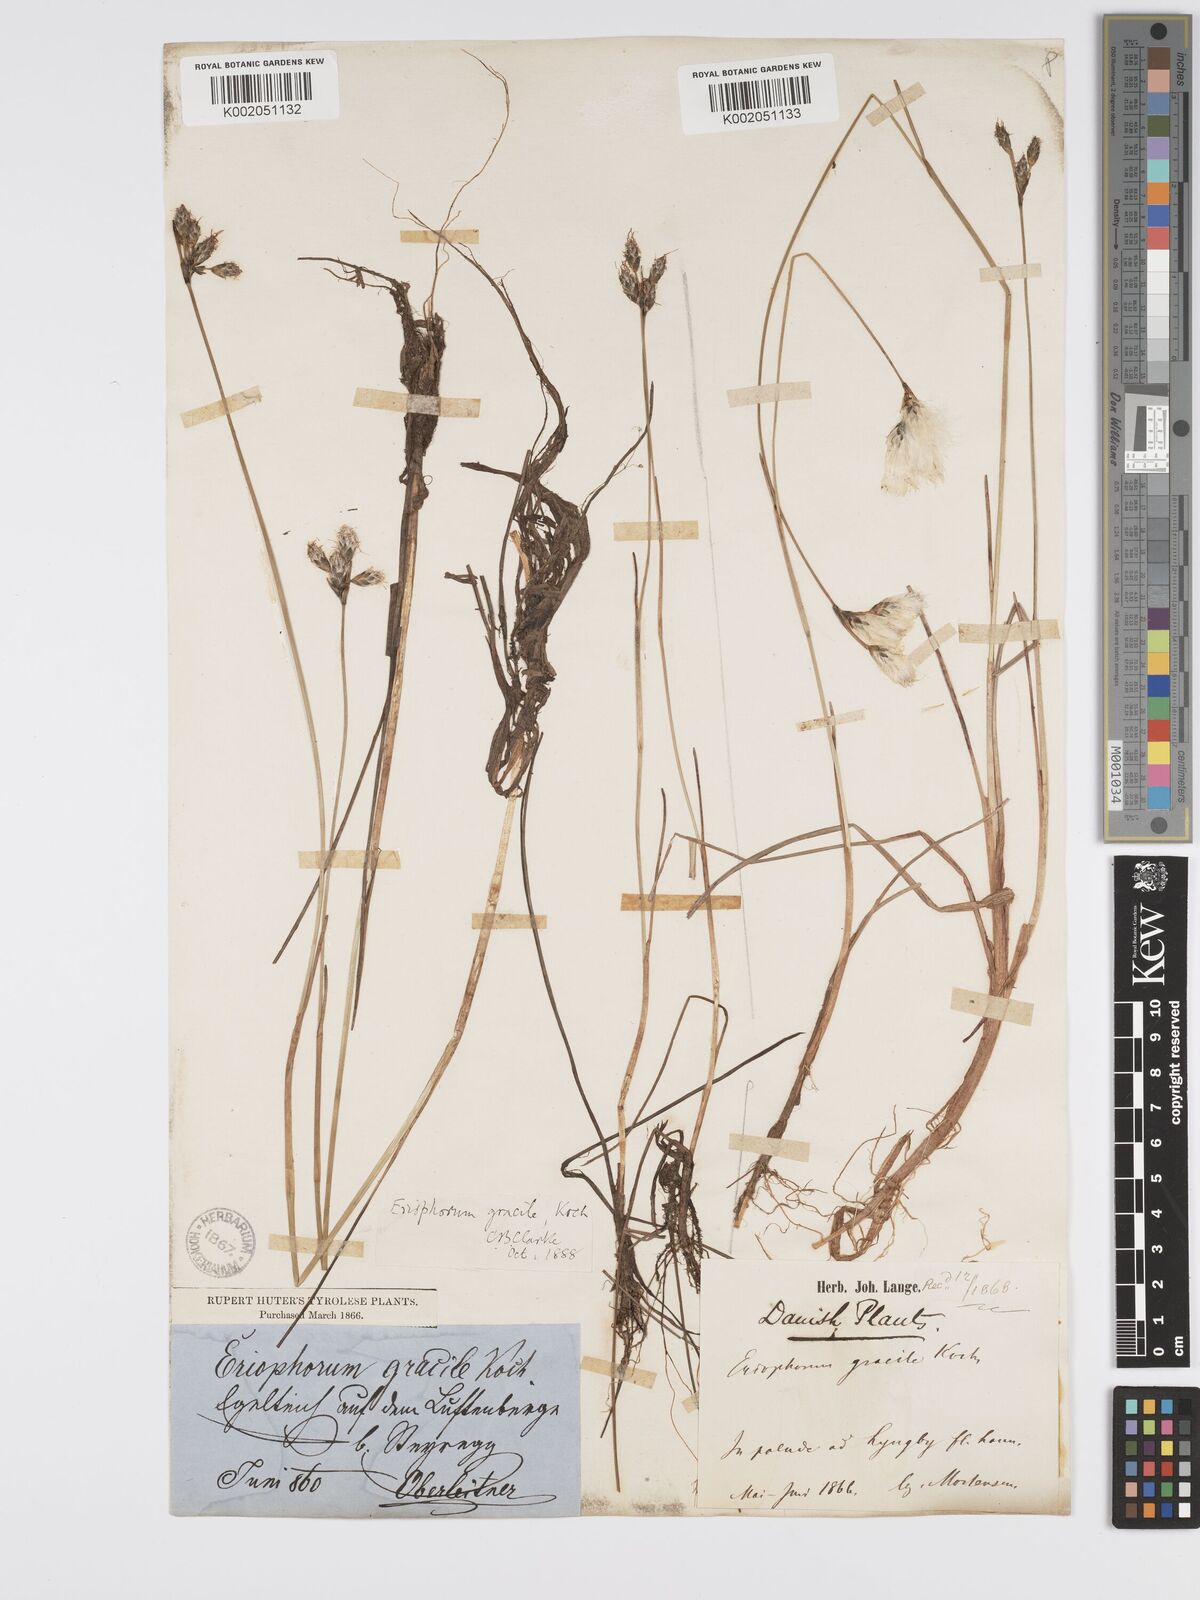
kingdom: Plantae
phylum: Tracheophyta
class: Liliopsida
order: Poales
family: Cyperaceae
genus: Eriophorum
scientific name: Eriophorum gracile
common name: Slender cottongrass
